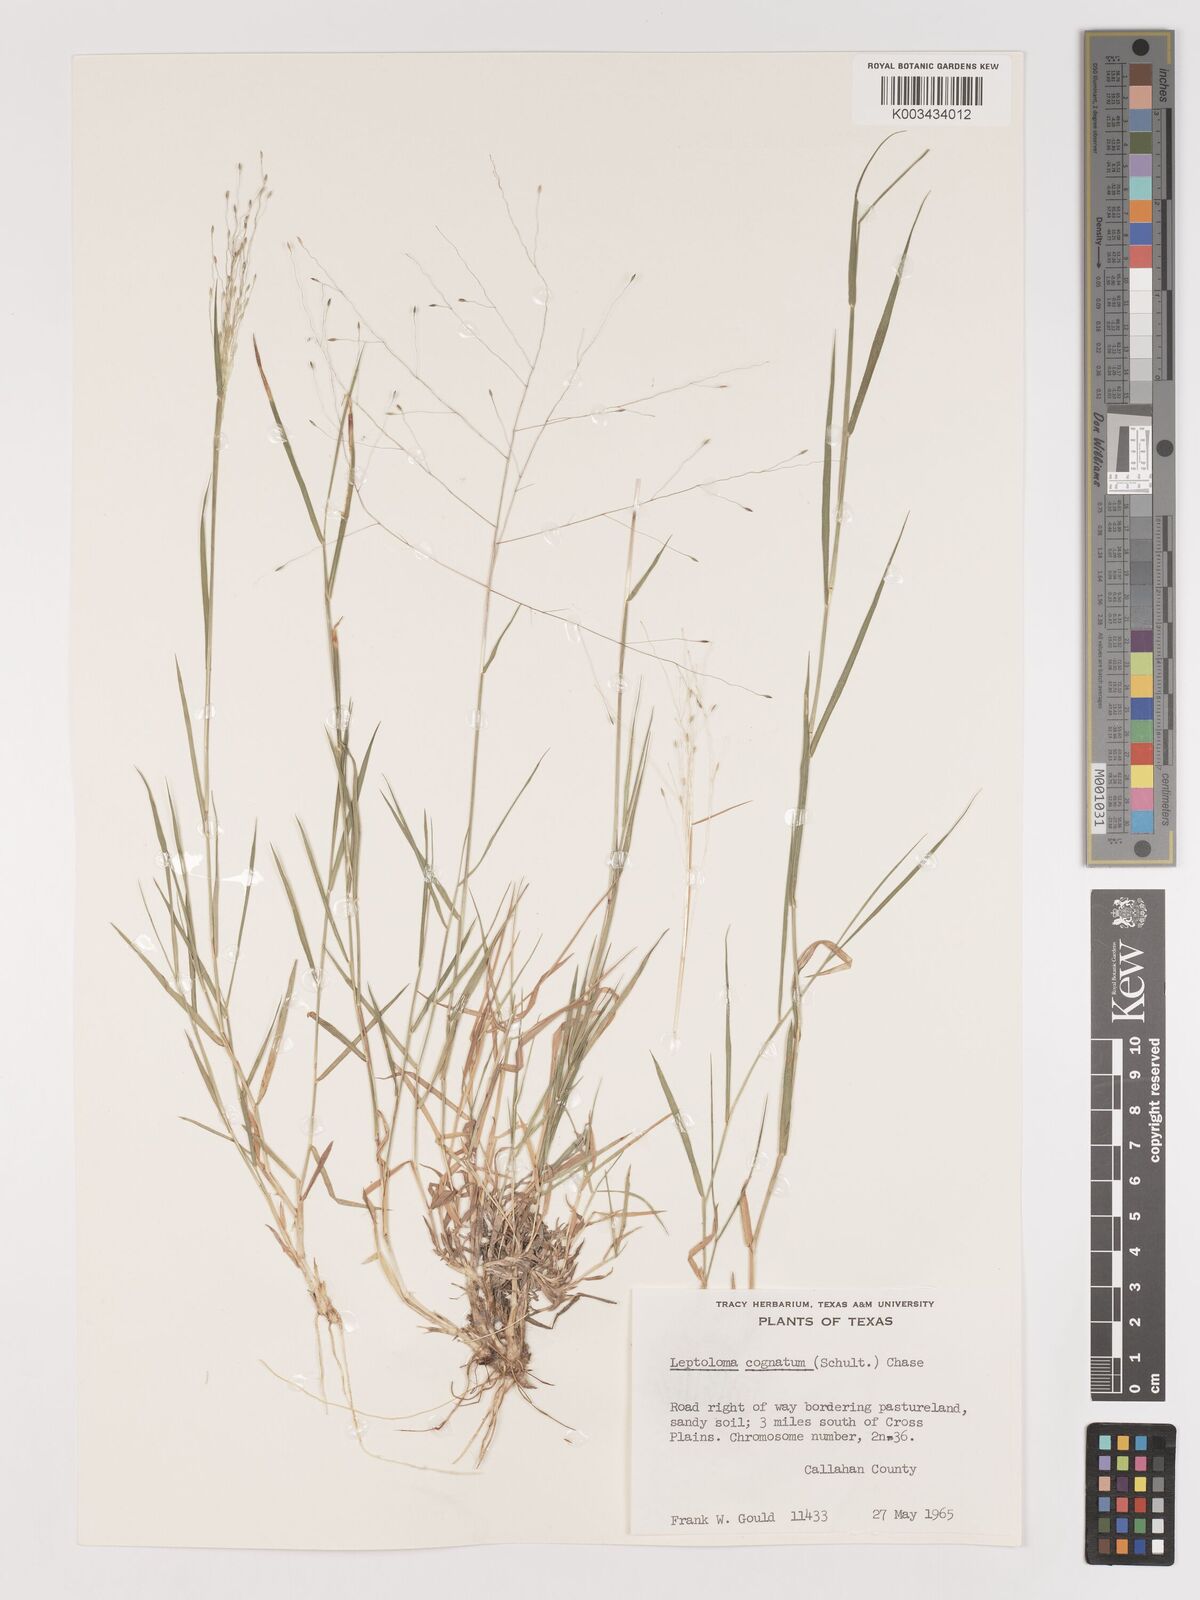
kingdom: Plantae
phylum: Tracheophyta
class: Liliopsida
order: Poales
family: Poaceae
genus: Digitaria
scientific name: Digitaria cognata
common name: Fall witchgrass
